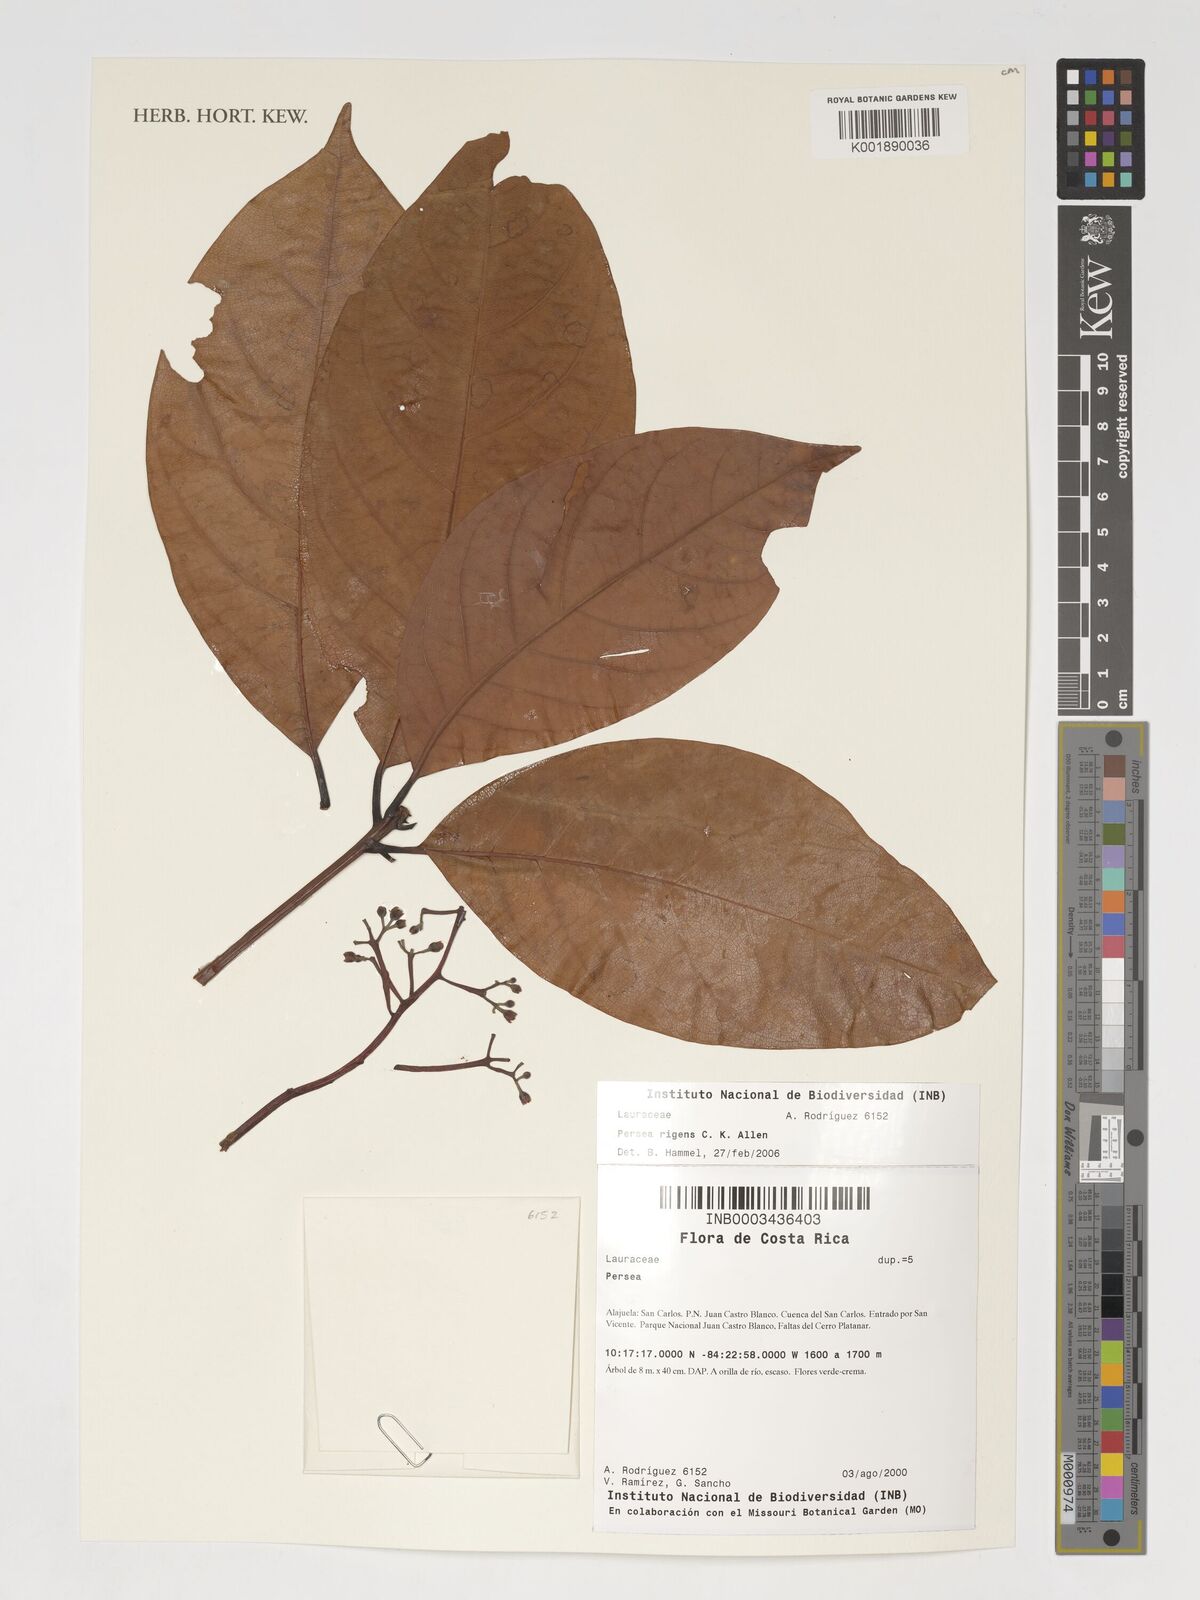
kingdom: Plantae
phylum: Tracheophyta
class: Magnoliopsida
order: Laurales
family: Lauraceae
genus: Persea
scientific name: Persea rigens
